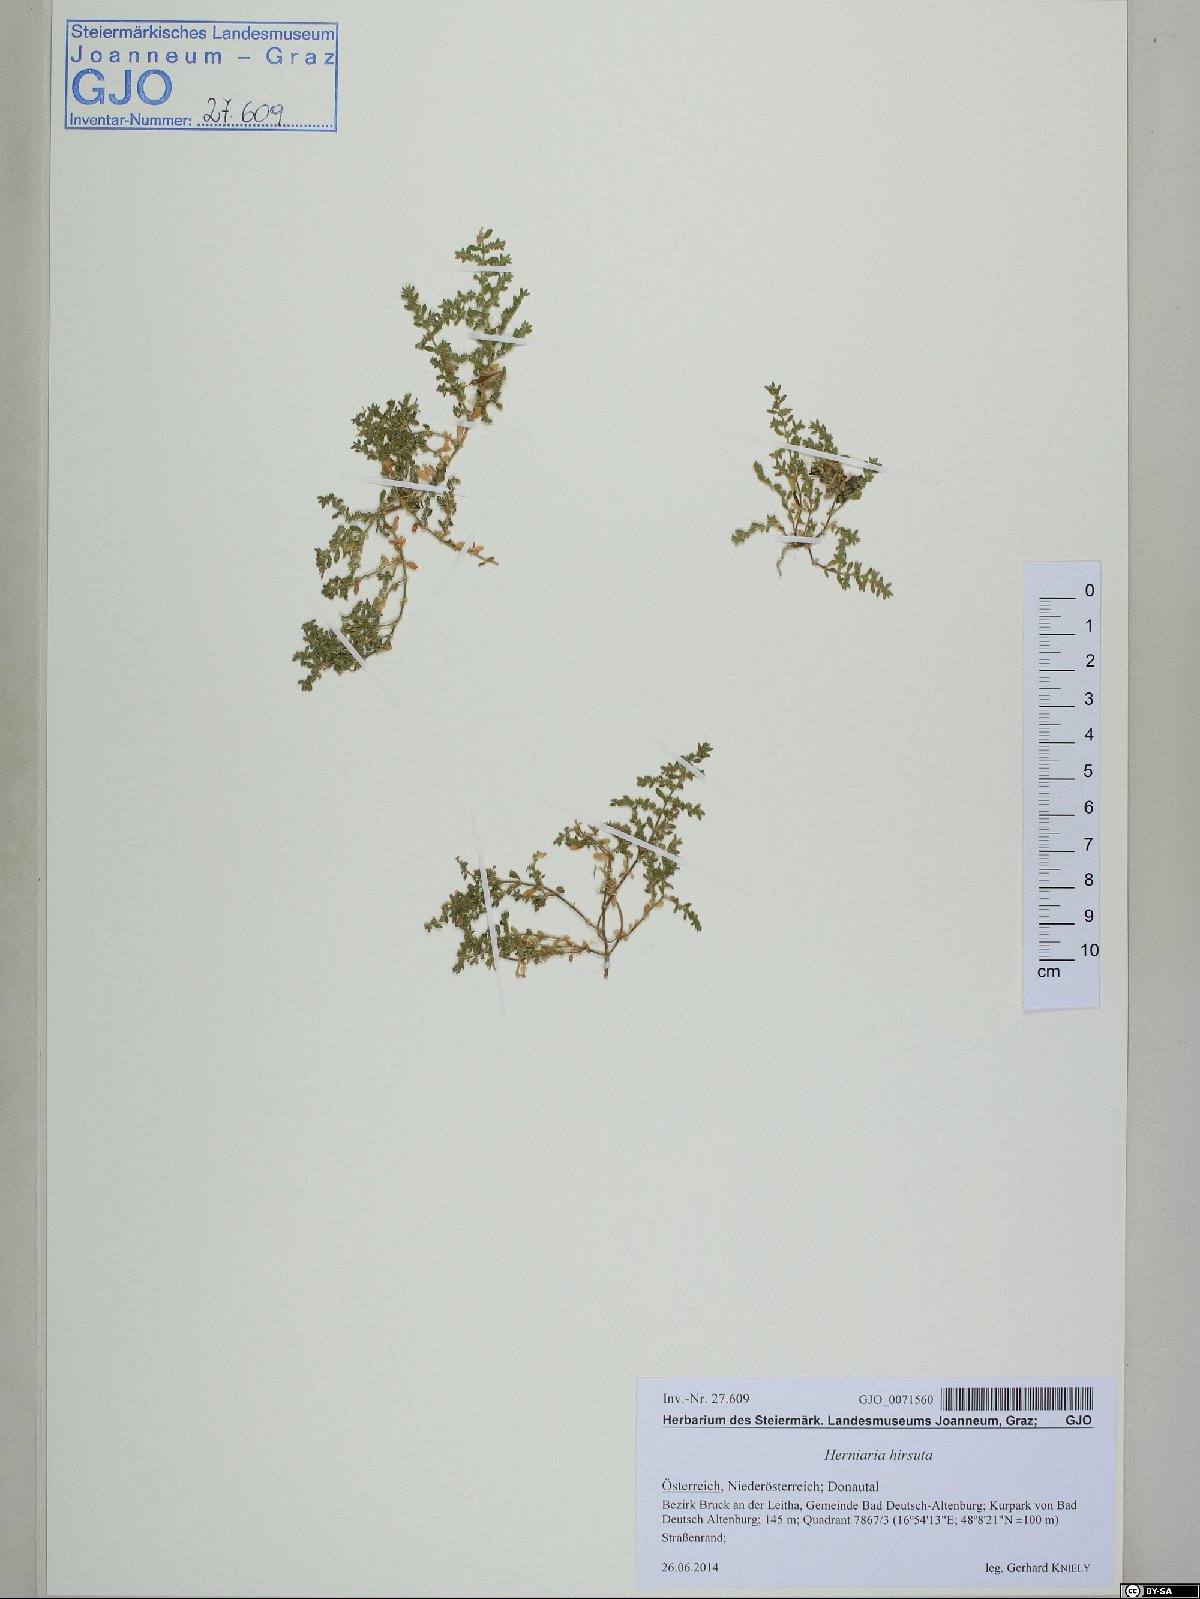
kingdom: Plantae
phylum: Tracheophyta
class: Magnoliopsida
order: Caryophyllales
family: Caryophyllaceae
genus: Herniaria
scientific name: Herniaria hirsuta
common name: Hairy rupturewort
